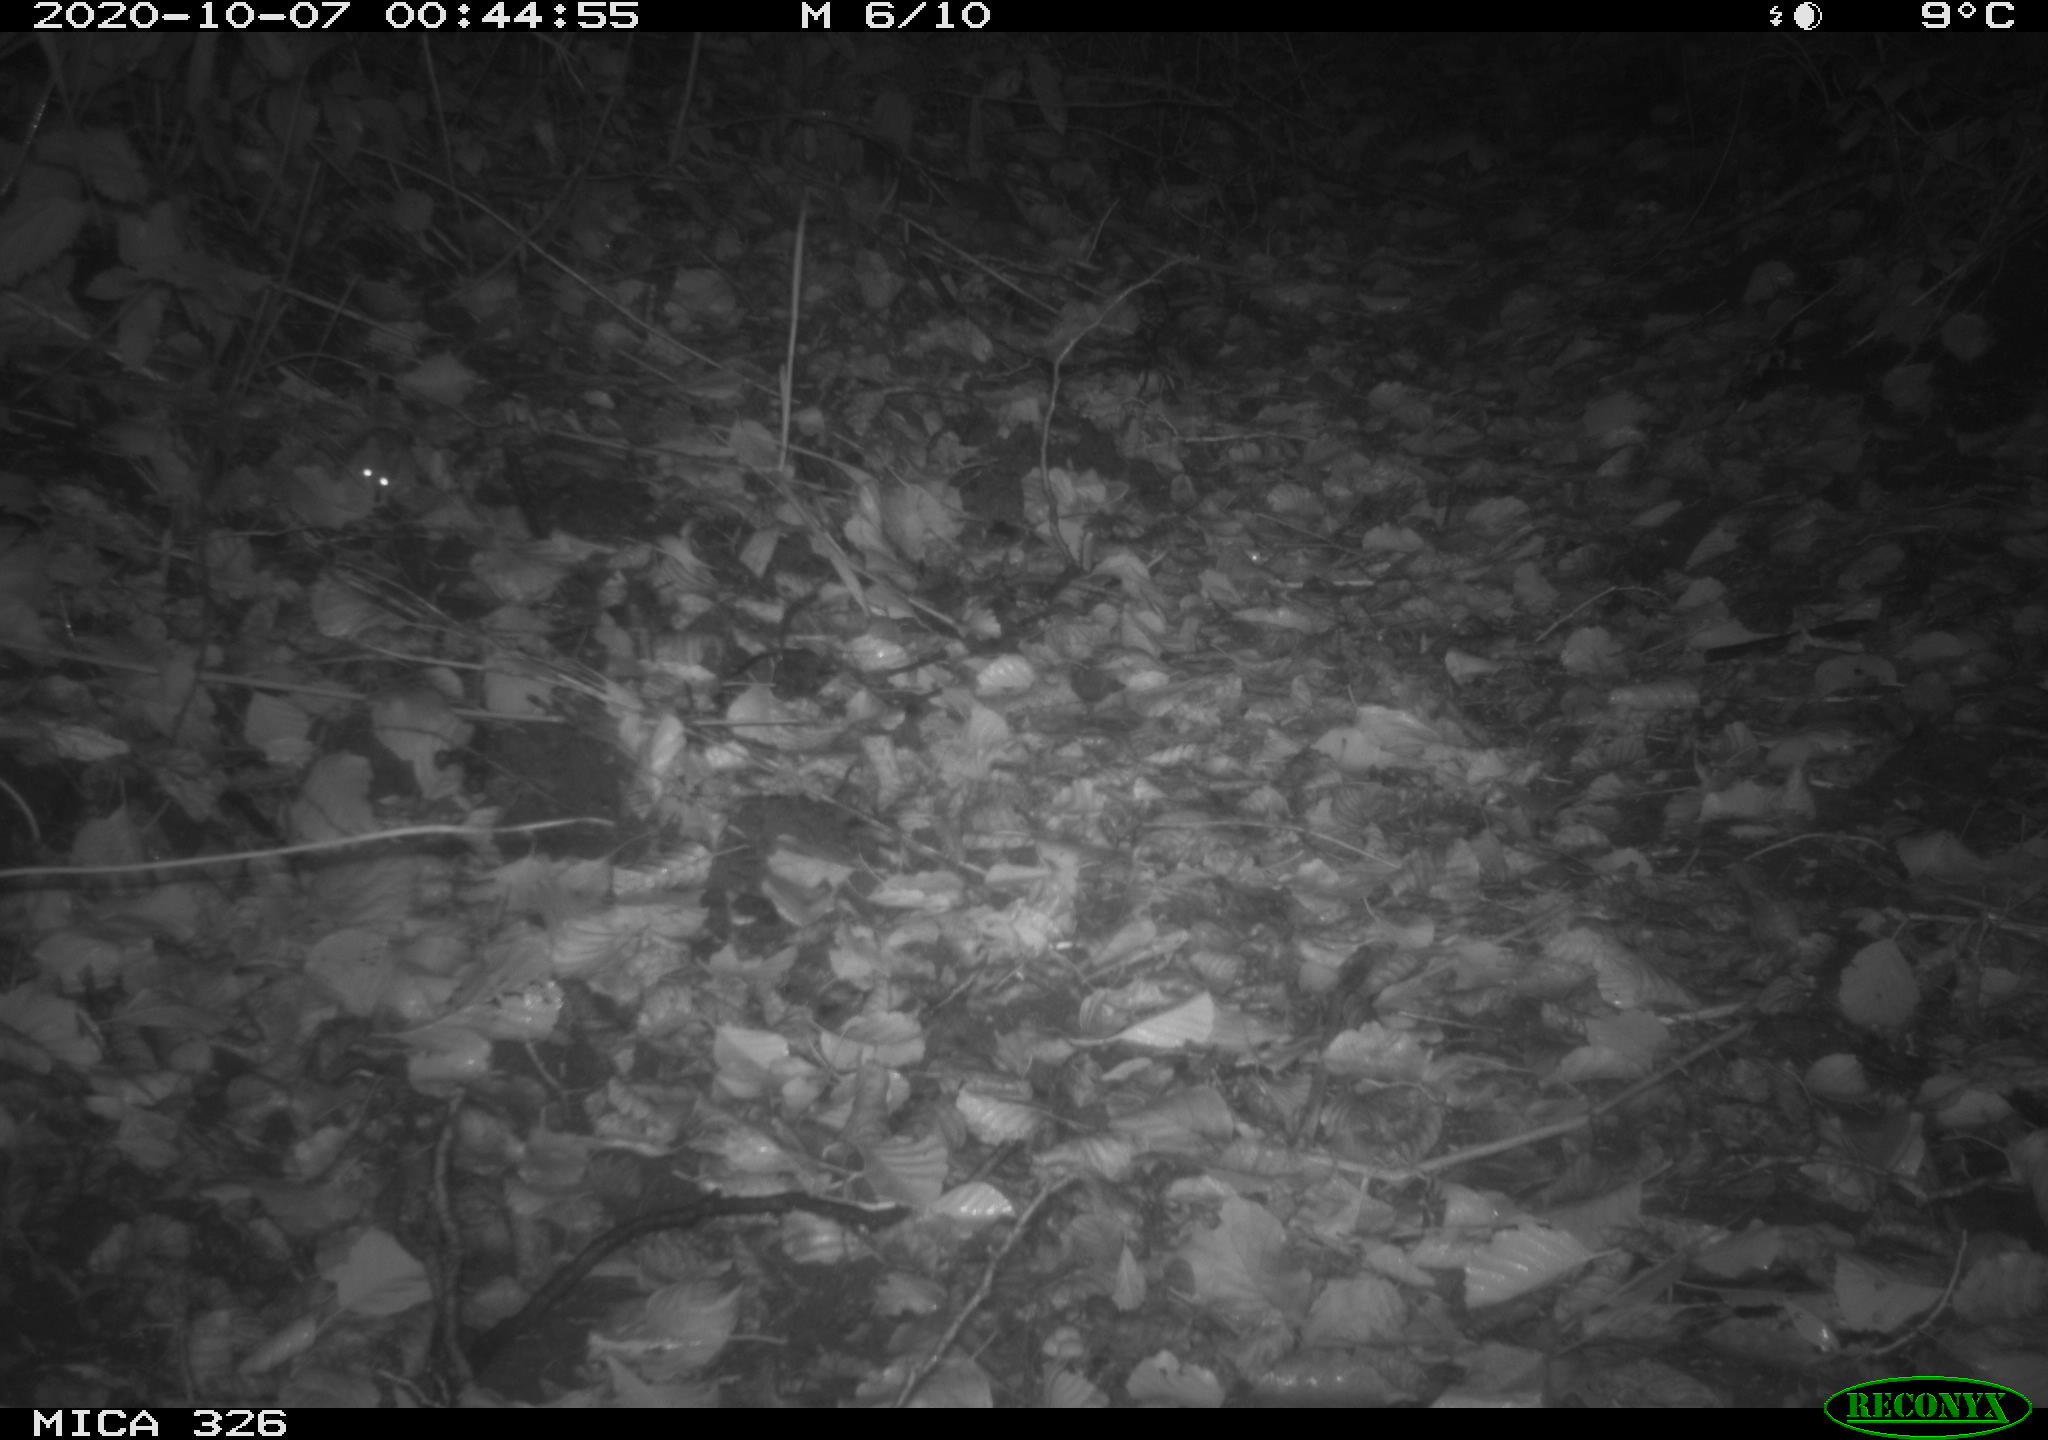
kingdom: Animalia
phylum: Chordata
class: Mammalia
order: Rodentia
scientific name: Rodentia
